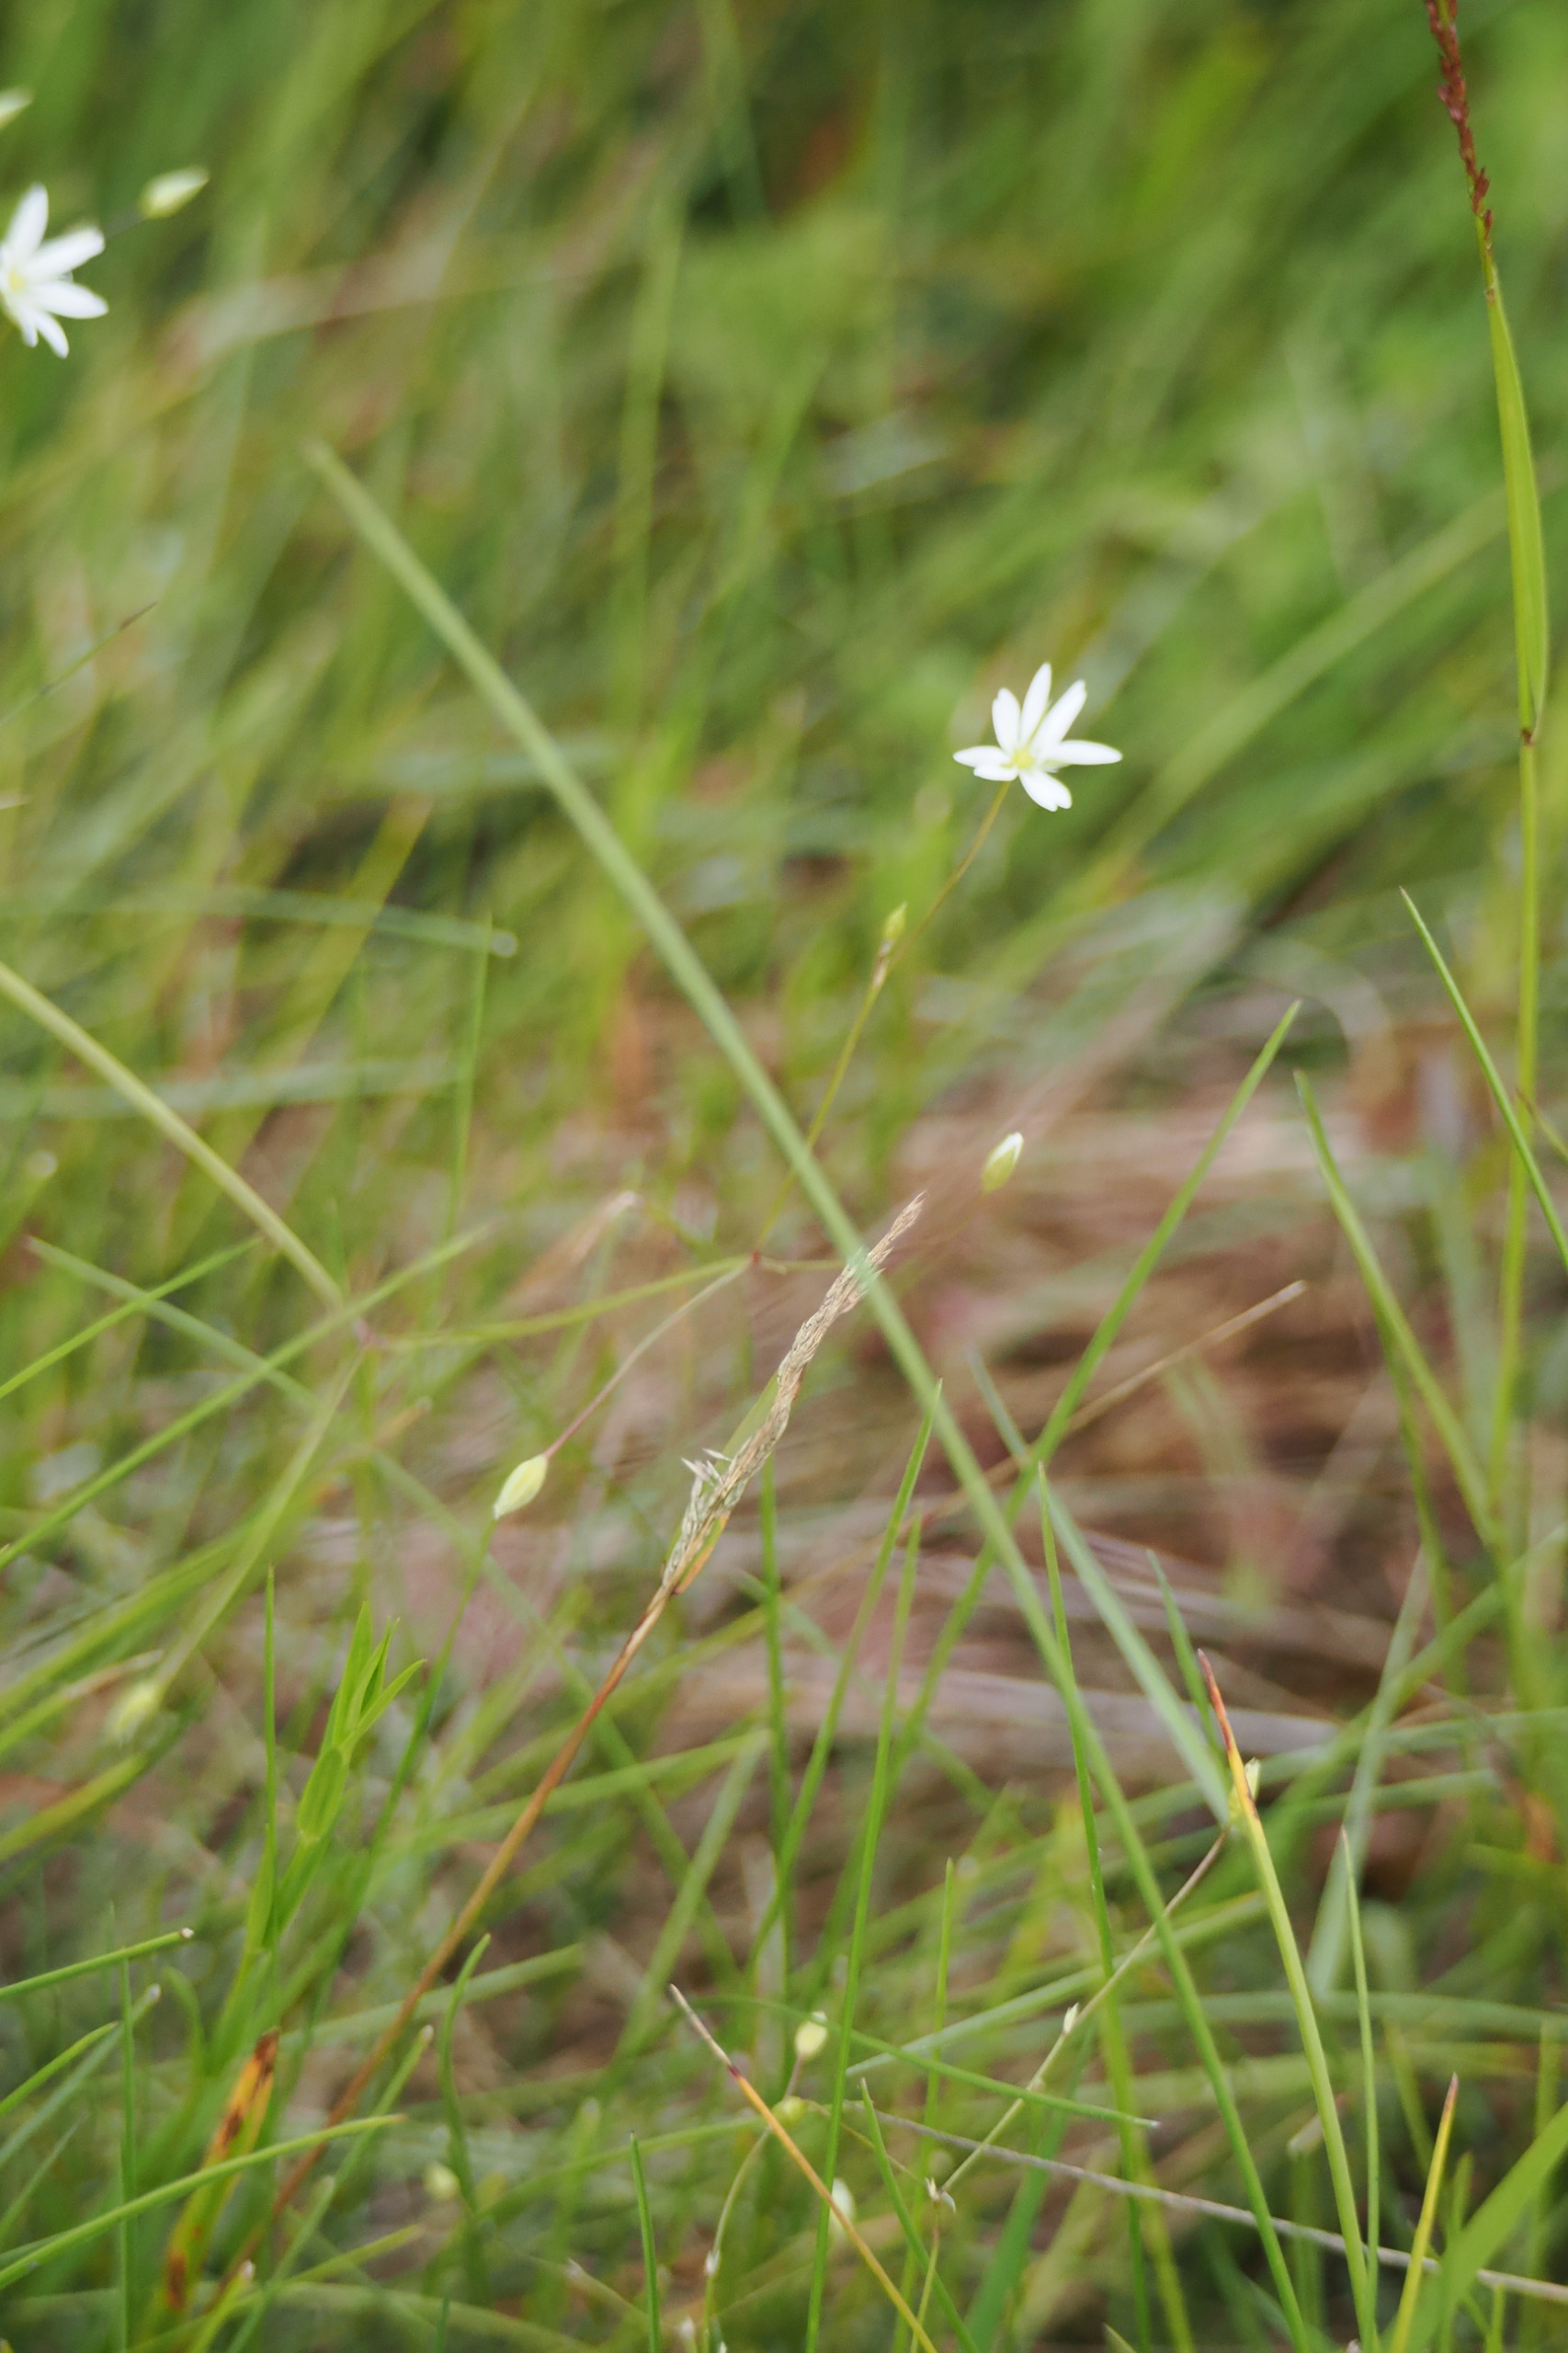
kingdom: Plantae
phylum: Tracheophyta
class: Magnoliopsida
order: Caryophyllales
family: Caryophyllaceae
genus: Stellaria
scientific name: Stellaria graminea
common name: Græsbladet fladstjerne
